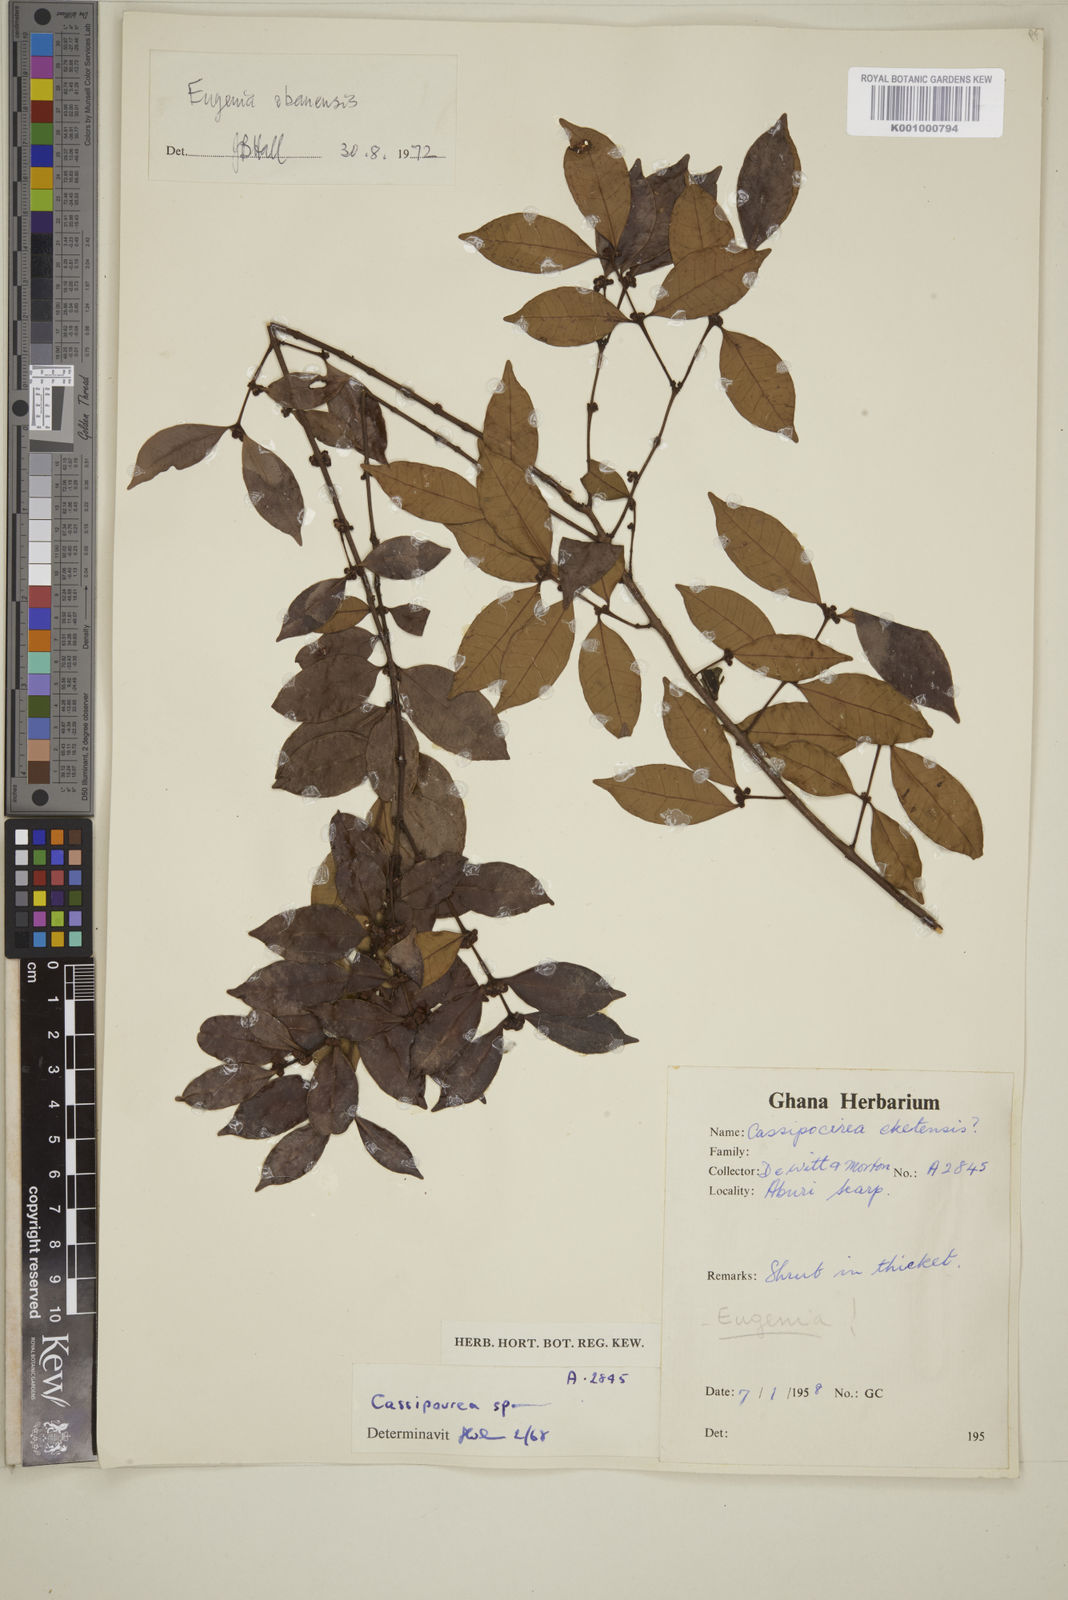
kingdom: Plantae
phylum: Tracheophyta
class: Magnoliopsida
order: Myrtales
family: Myrtaceae
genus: Eugenia
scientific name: Eugenia
